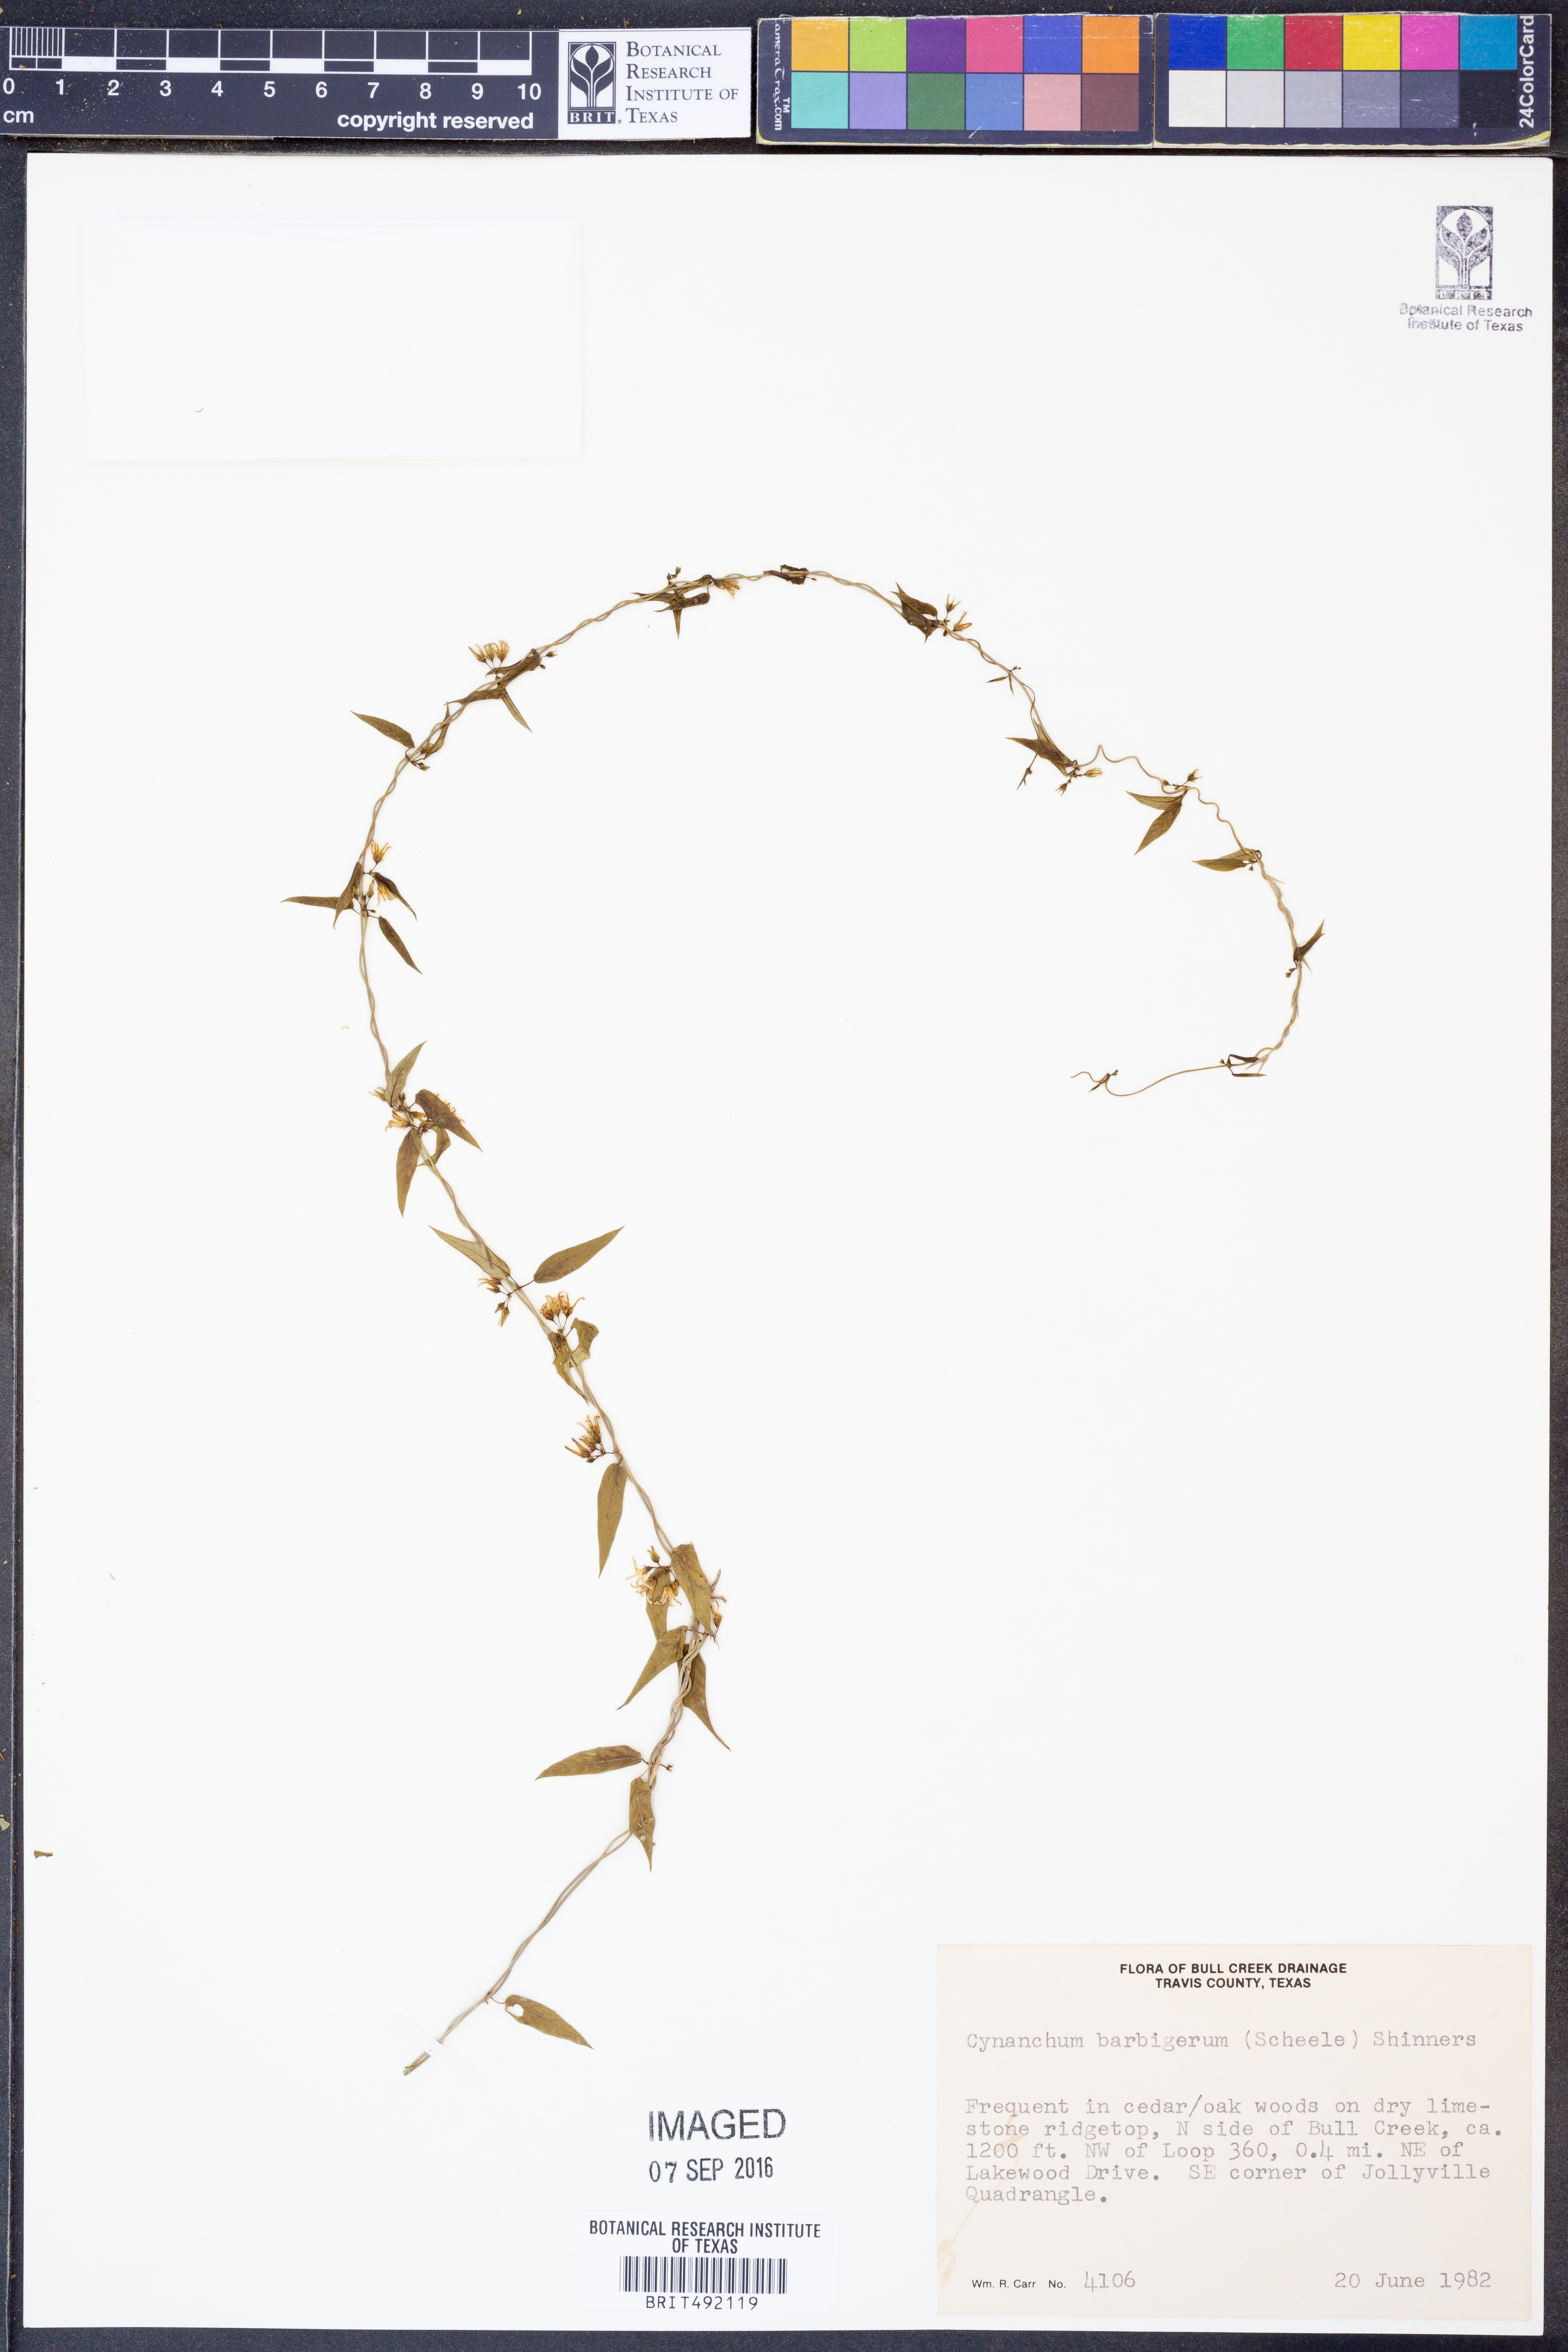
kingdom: Plantae
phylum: Tracheophyta
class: Magnoliopsida
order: Gentianales
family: Apocynaceae
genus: Metastelma
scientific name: Metastelma barbigerum
